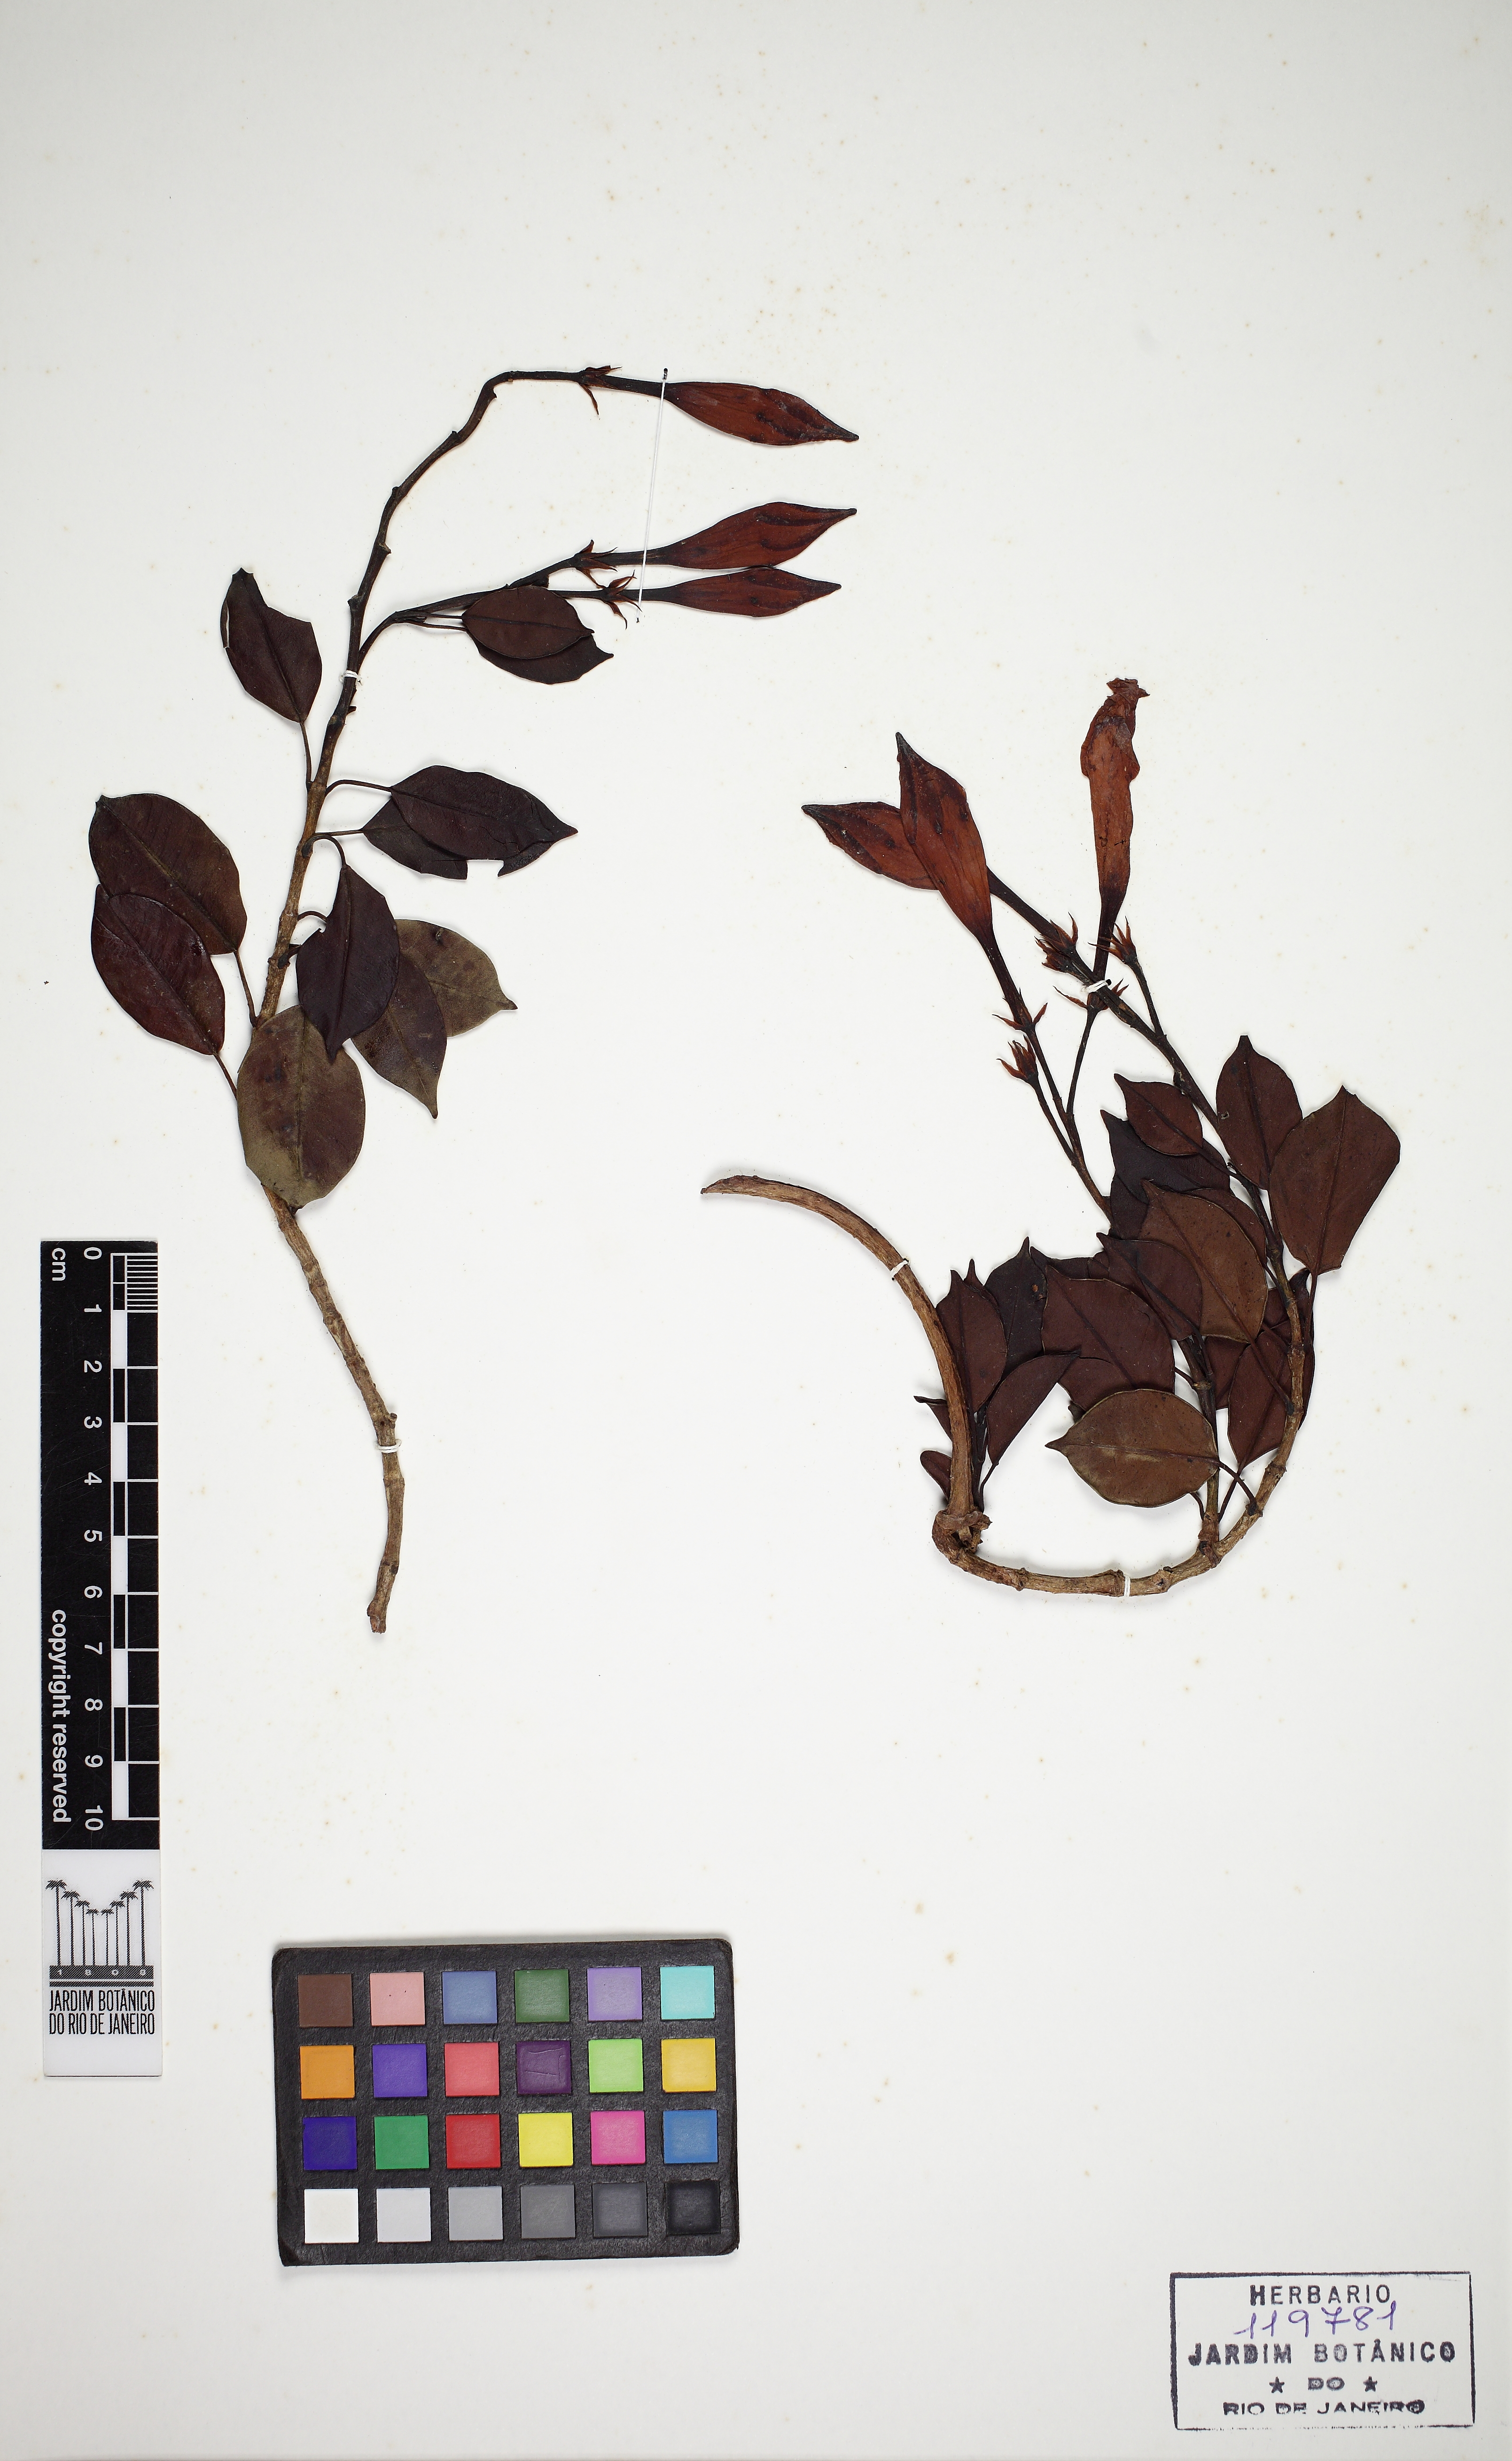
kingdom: Plantae
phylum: Tracheophyta
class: Magnoliopsida
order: Gentianales
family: Apocynaceae
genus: Mandevilla
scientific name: Mandevilla atroviolacea
